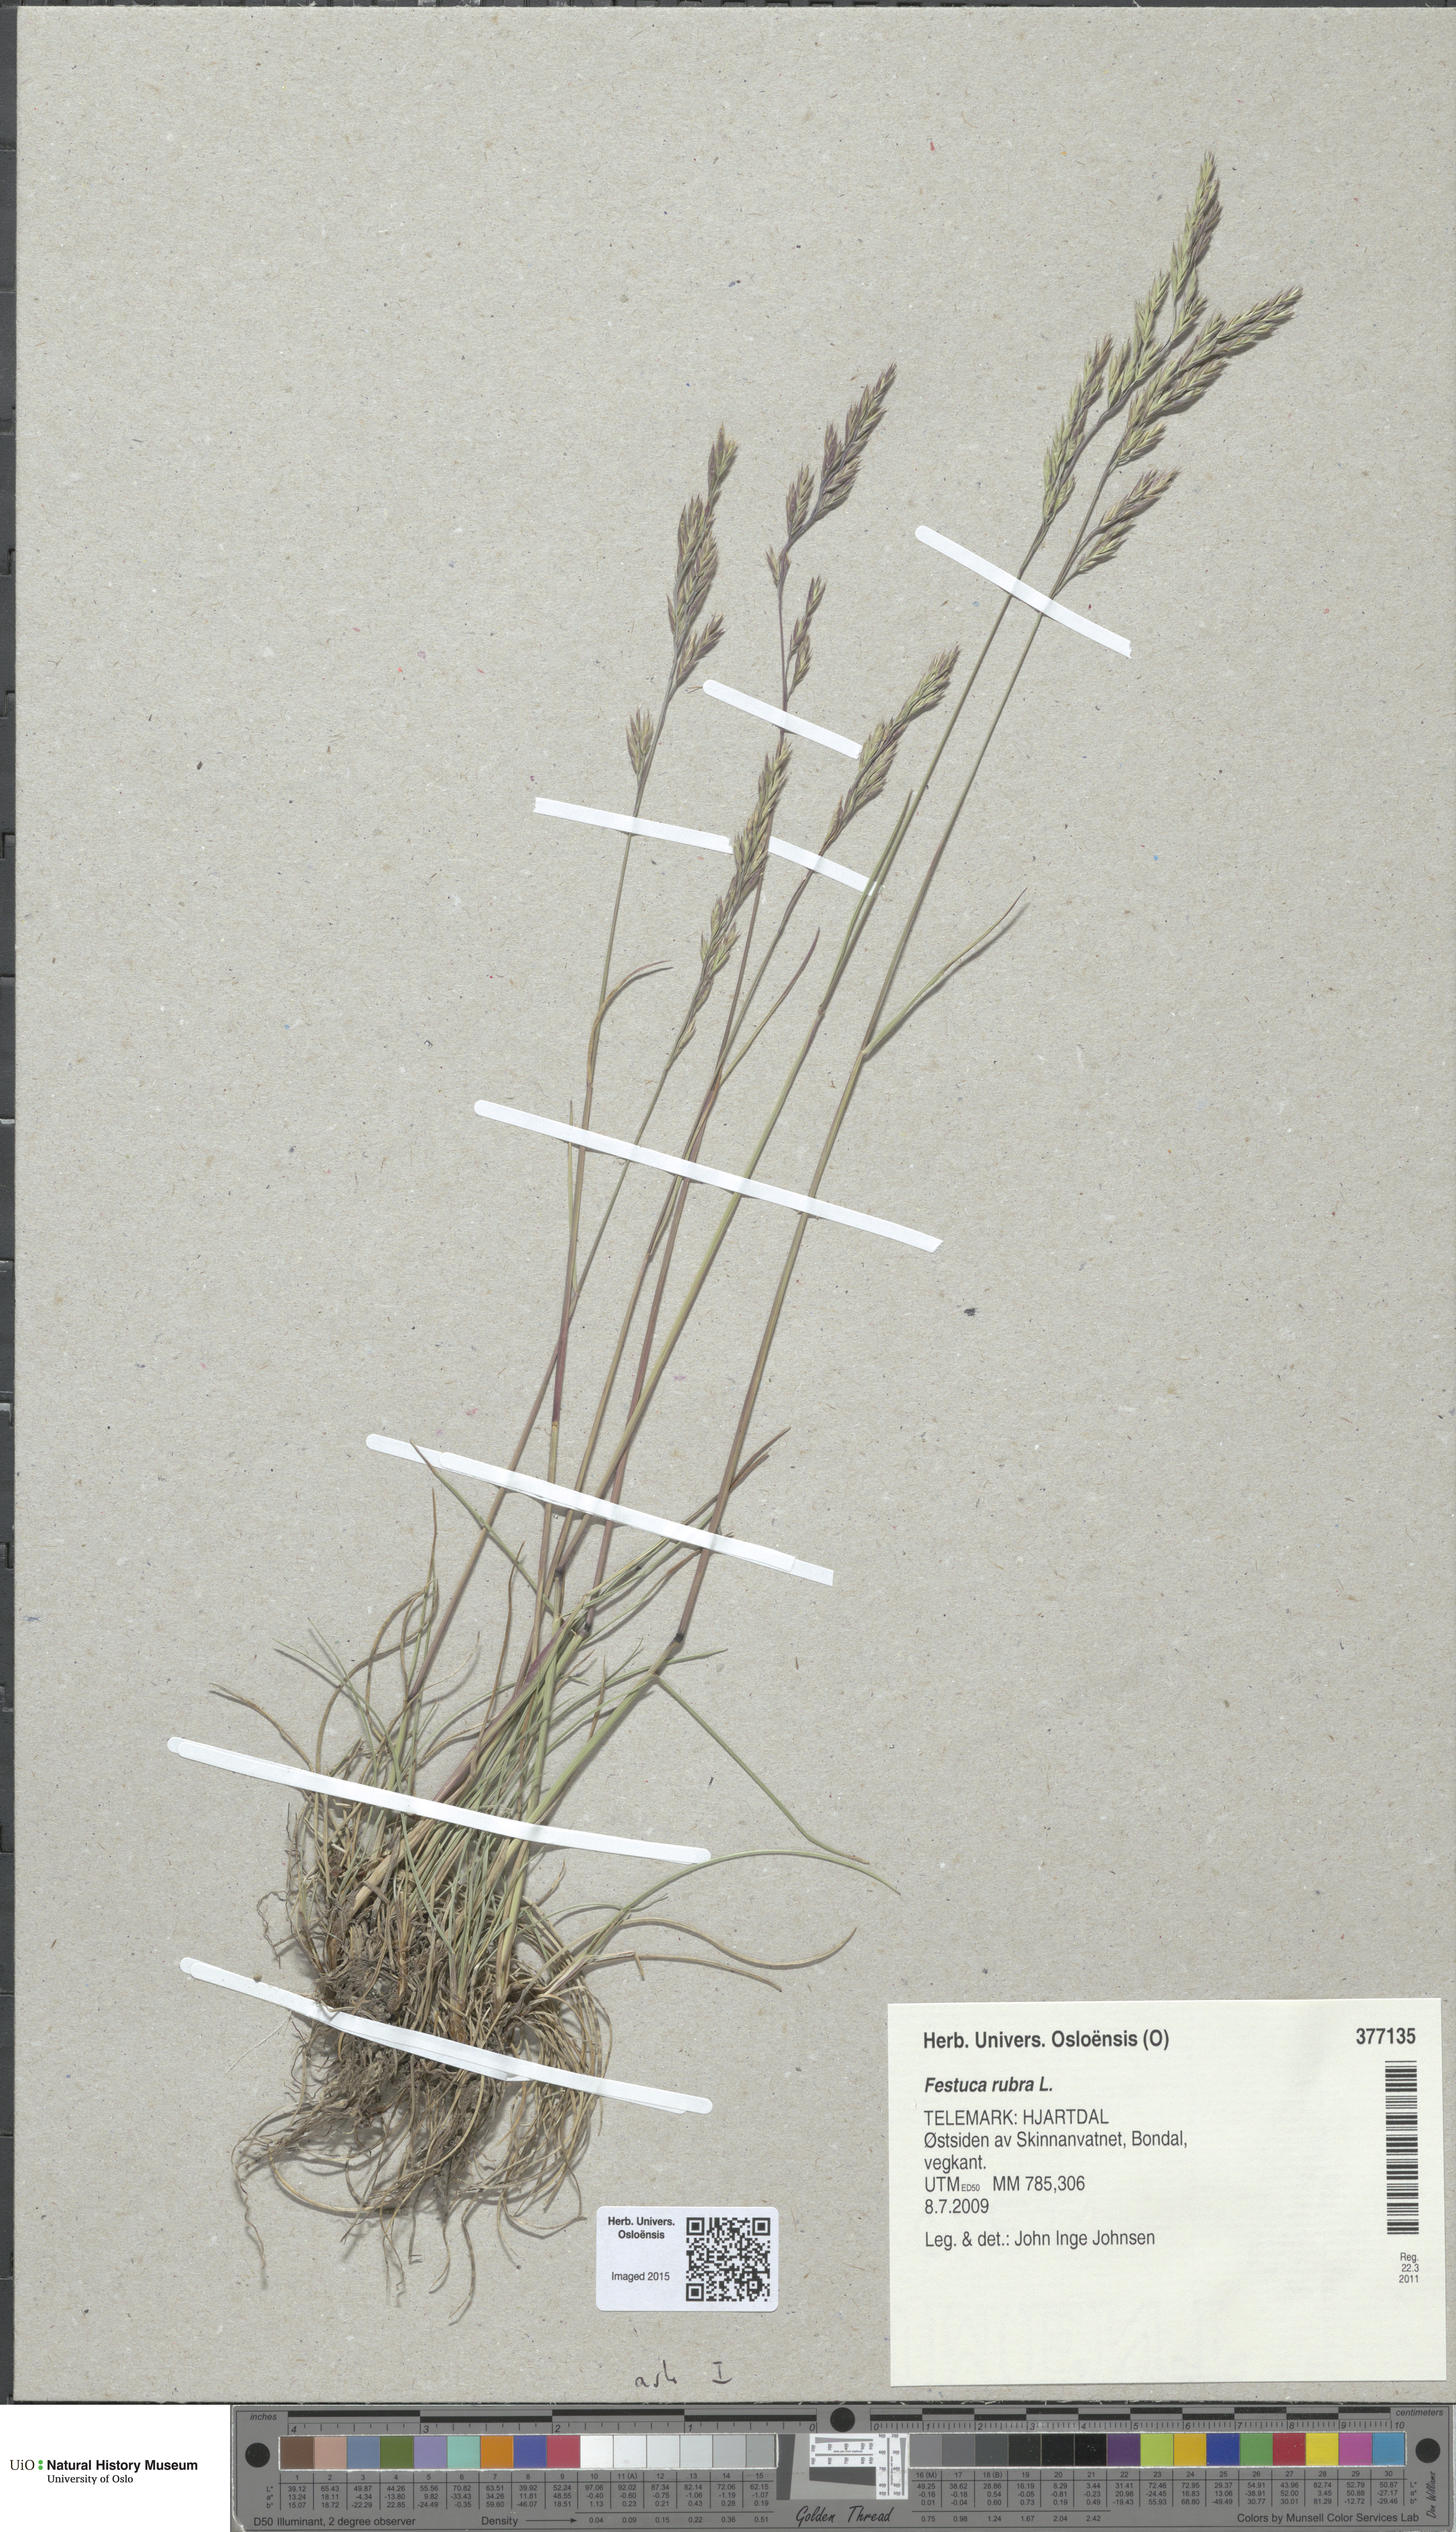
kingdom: Plantae
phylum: Tracheophyta
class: Liliopsida
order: Poales
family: Poaceae
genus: Festuca
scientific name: Festuca rubra
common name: Red fescue
